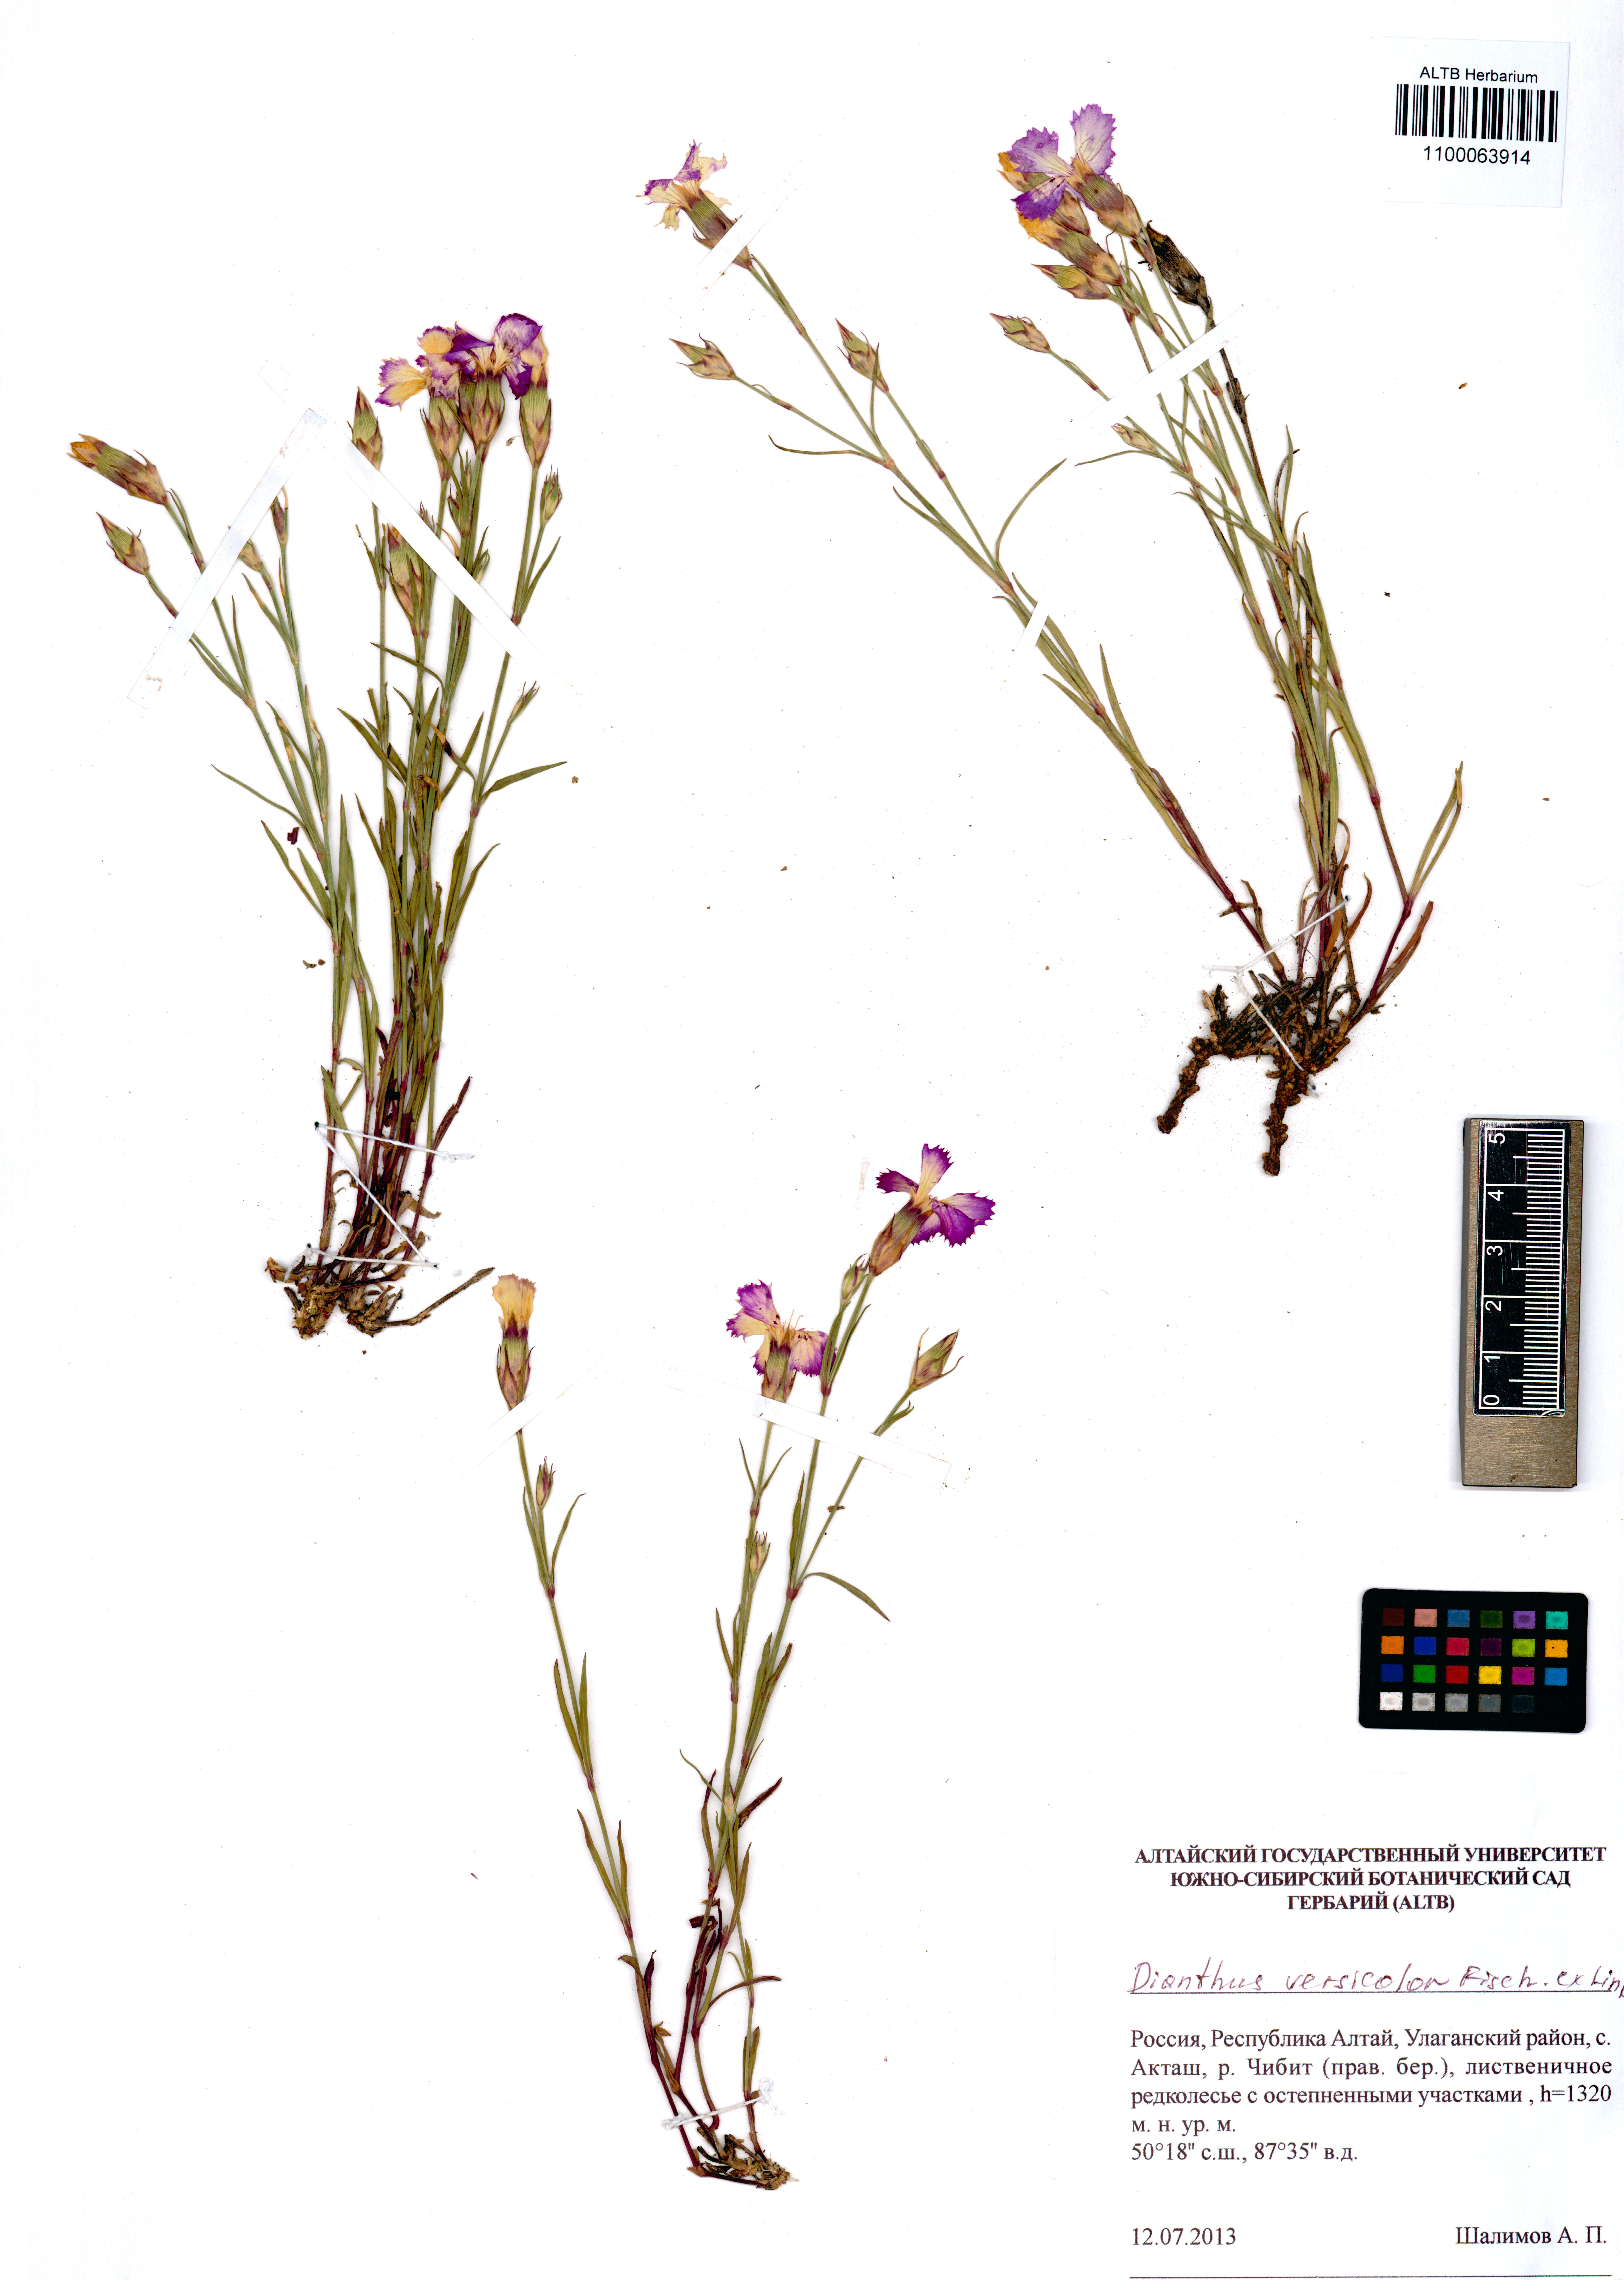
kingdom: Plantae
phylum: Tracheophyta
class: Magnoliopsida
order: Caryophyllales
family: Caryophyllaceae
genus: Dianthus
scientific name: Dianthus chinensis
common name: Rainbow pink
